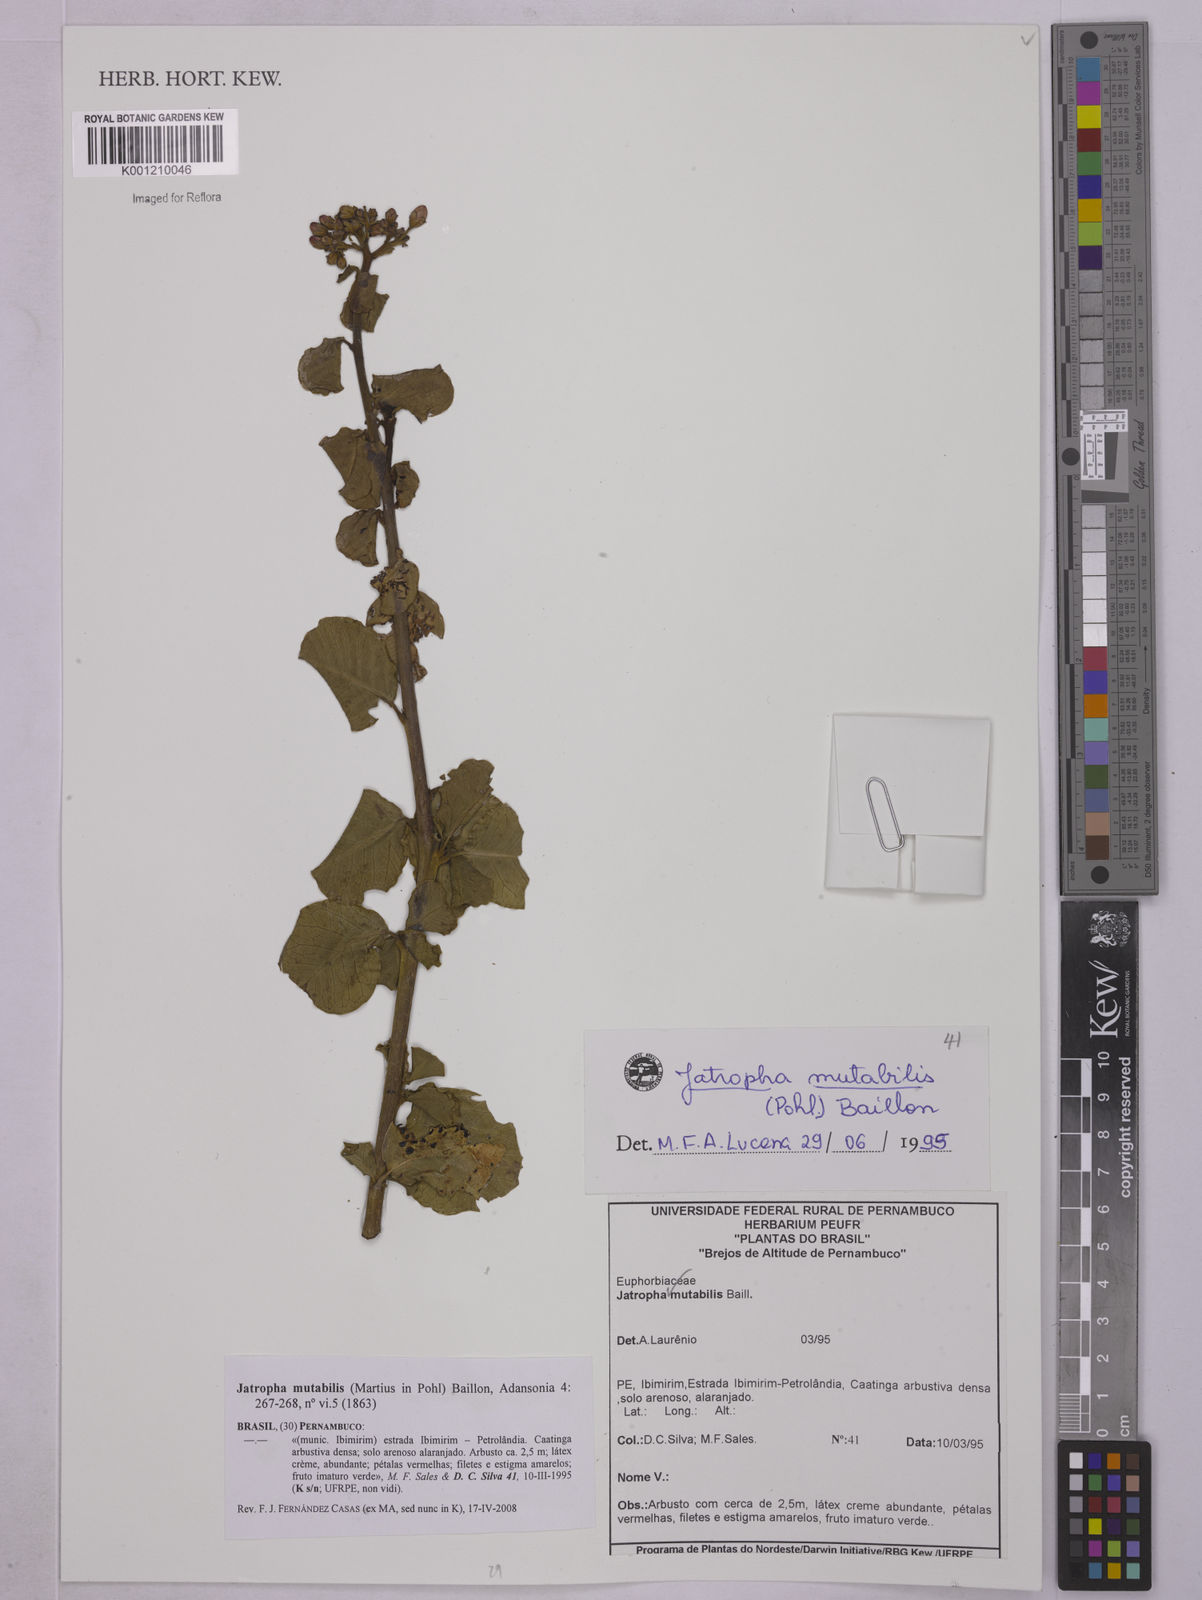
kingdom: Plantae
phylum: Tracheophyta
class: Magnoliopsida
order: Malpighiales
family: Euphorbiaceae
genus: Jatropha
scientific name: Jatropha mutabilis
